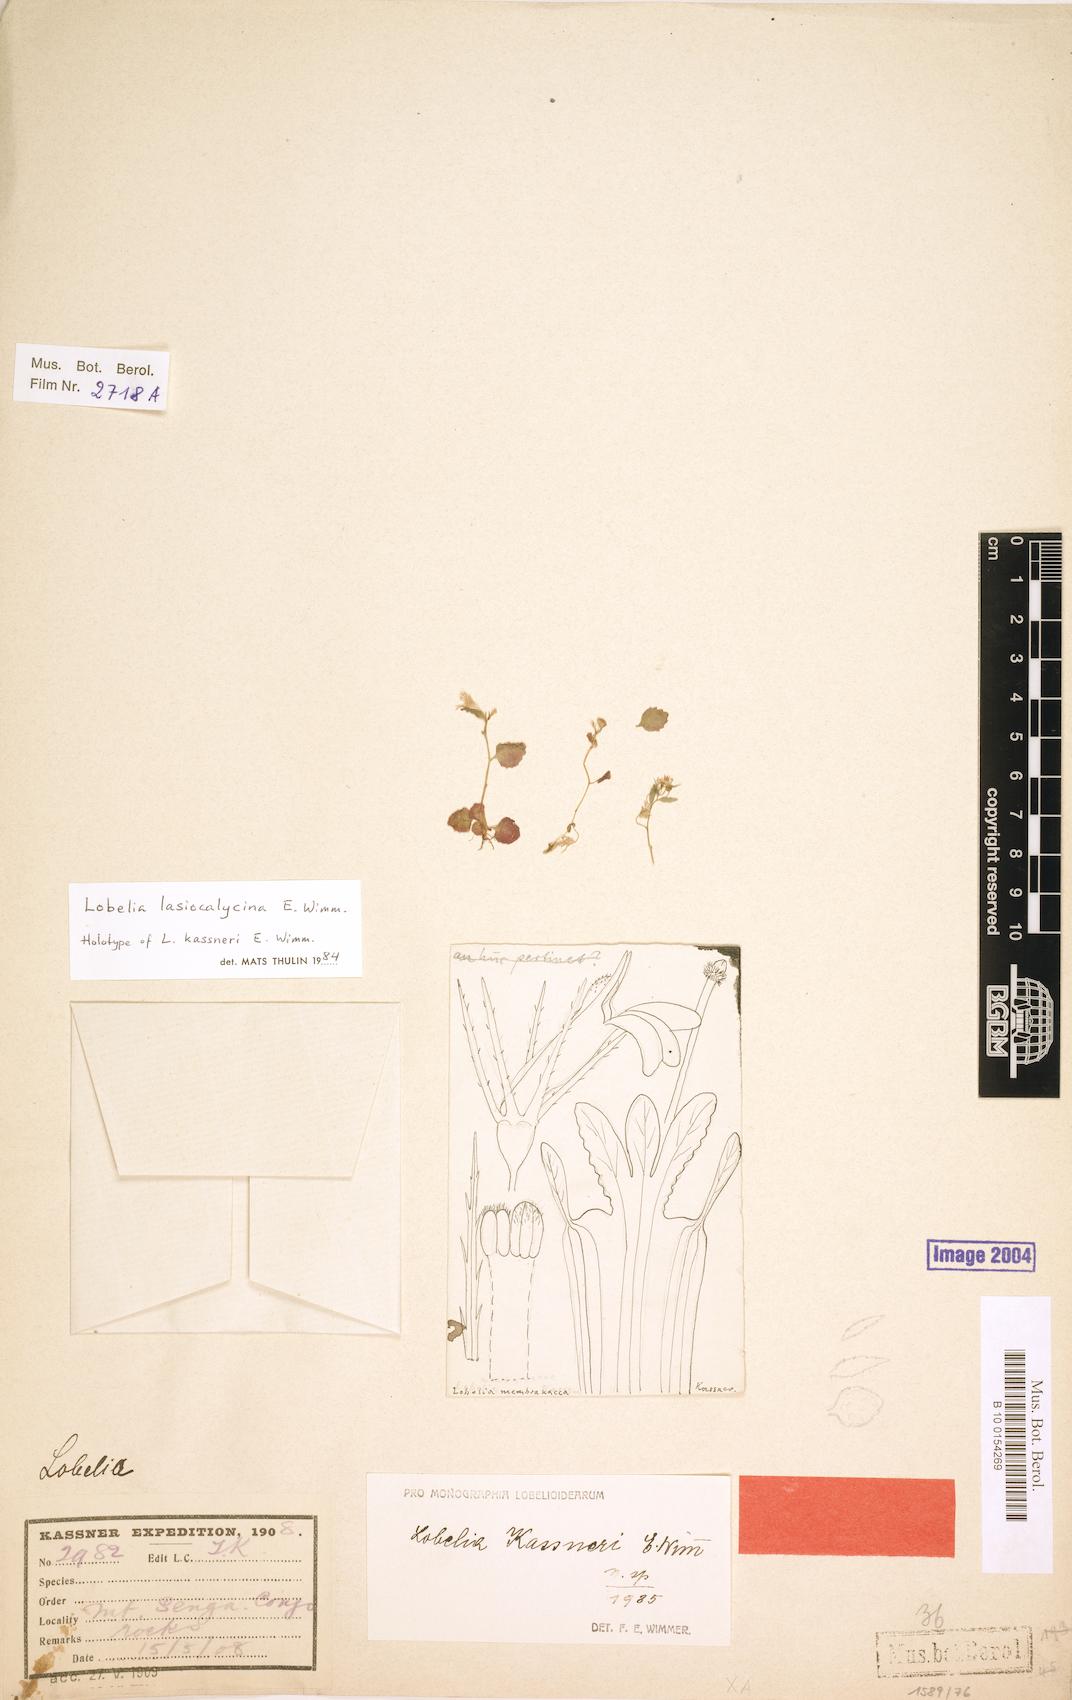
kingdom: Plantae
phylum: Tracheophyta
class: Magnoliopsida
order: Asterales
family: Campanulaceae
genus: Lobelia
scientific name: Lobelia lasiocalycina
